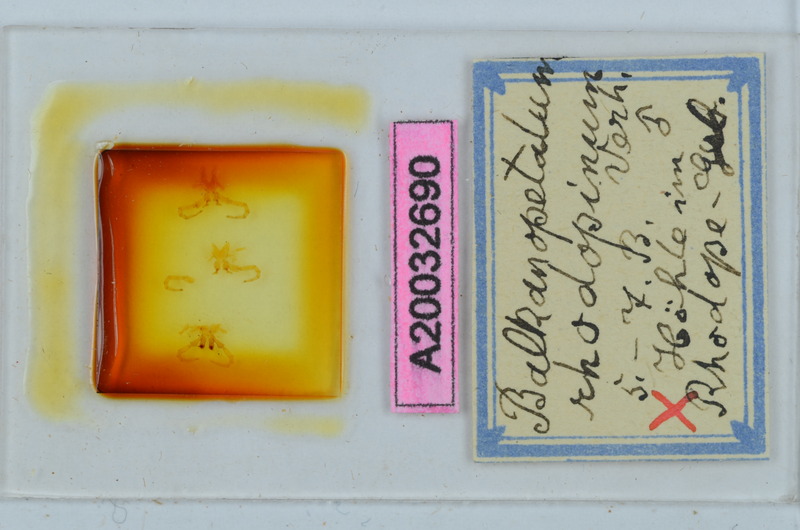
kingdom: Animalia
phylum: Arthropoda
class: Diplopoda
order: Callipodida
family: Schizopetalidae
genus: Balkanopetalum
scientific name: Balkanopetalum rhodopinum
